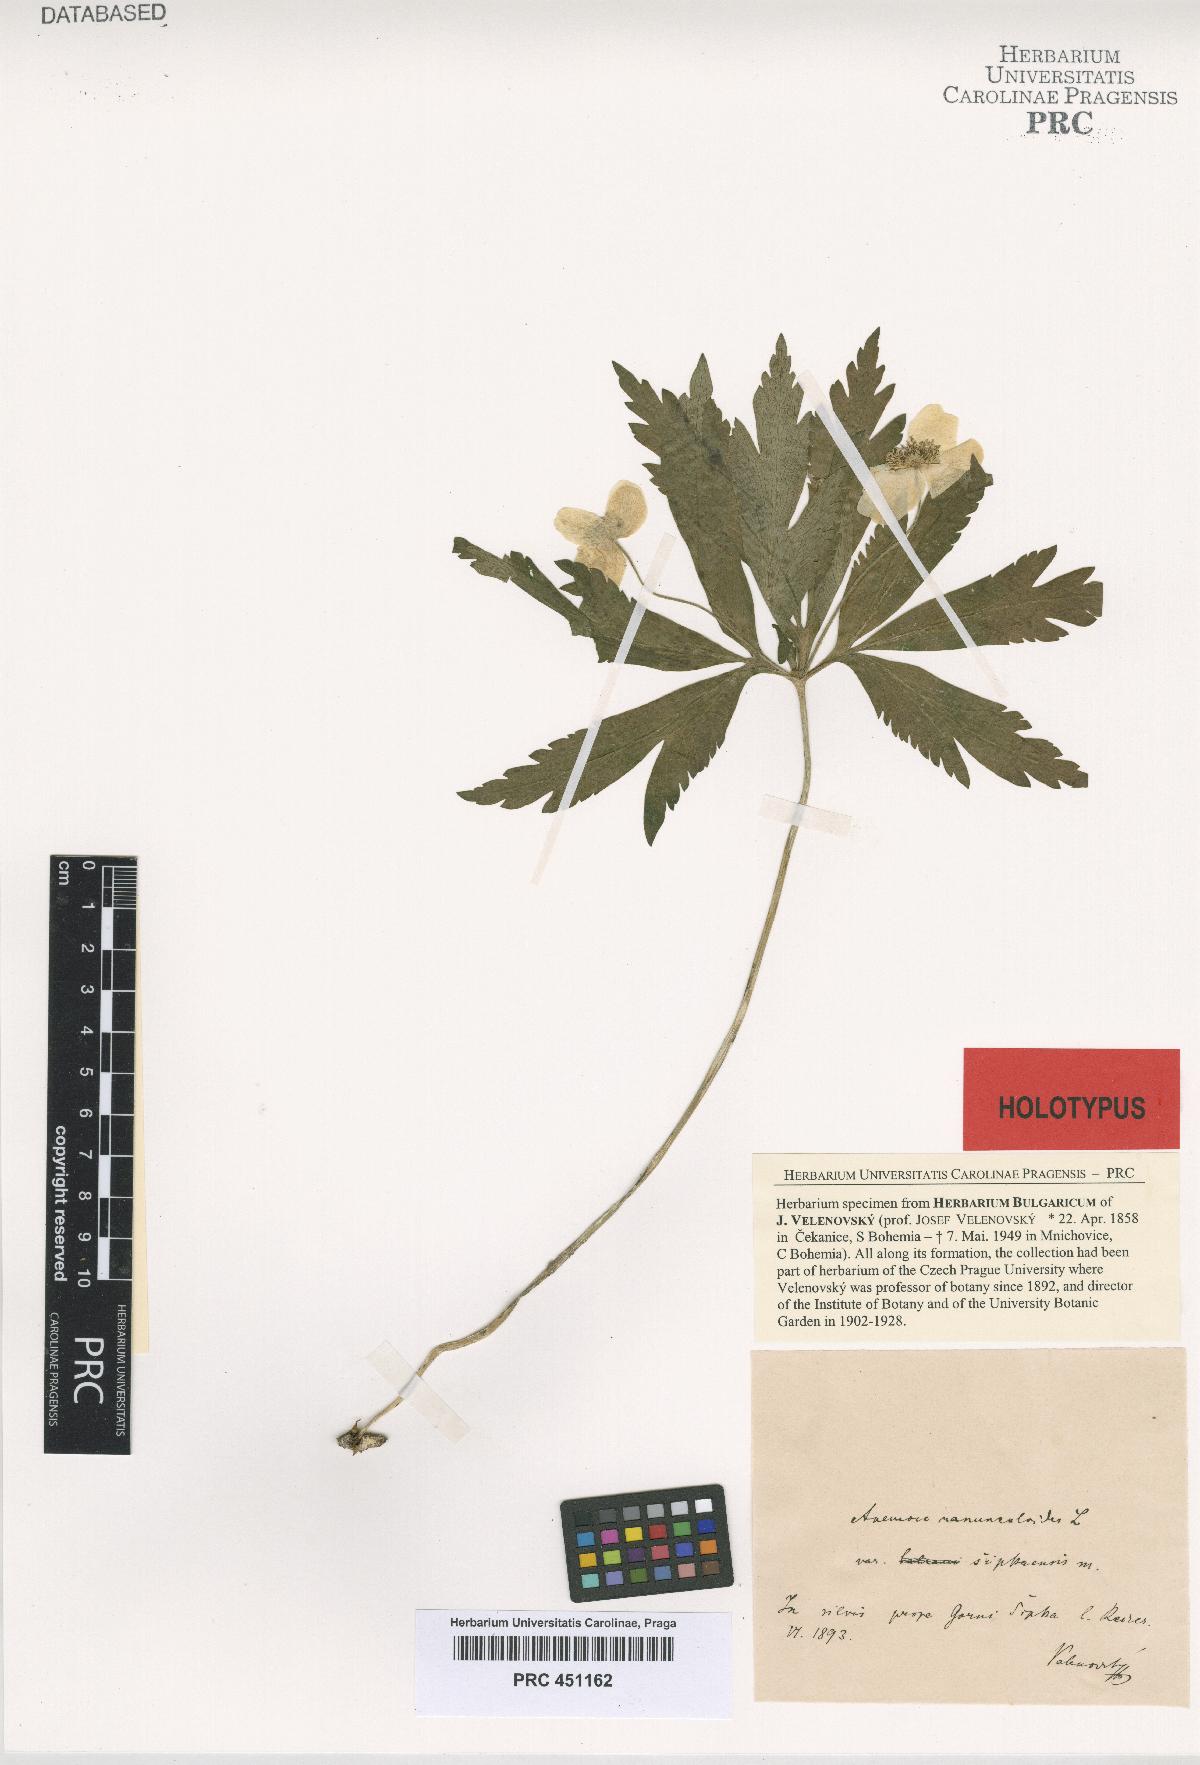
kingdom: Plantae
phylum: Tracheophyta
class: Magnoliopsida
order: Ranunculales
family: Ranunculaceae
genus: Anemone
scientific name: Anemone ranunculoides
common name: Yellow anemone
